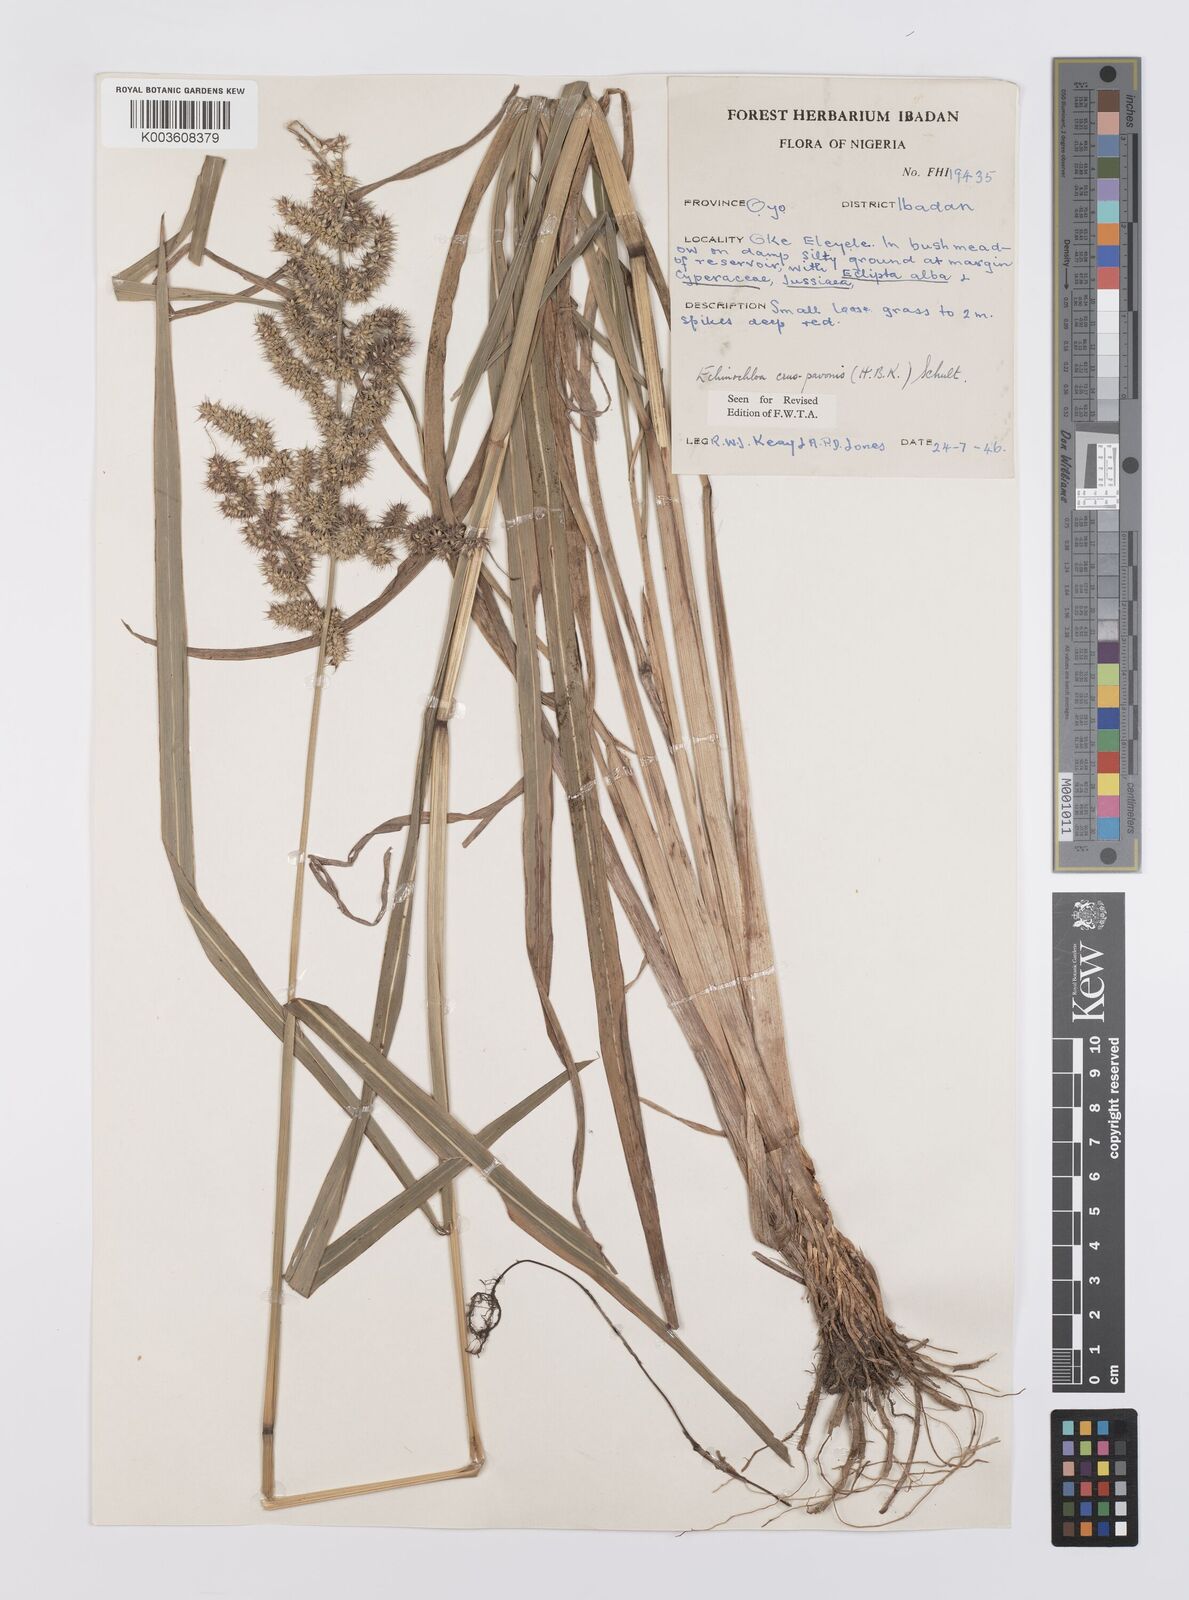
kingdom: Plantae
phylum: Tracheophyta
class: Liliopsida
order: Poales
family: Poaceae
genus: Echinochloa
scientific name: Echinochloa crus-pavonis
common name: Gulf cockspur grass
